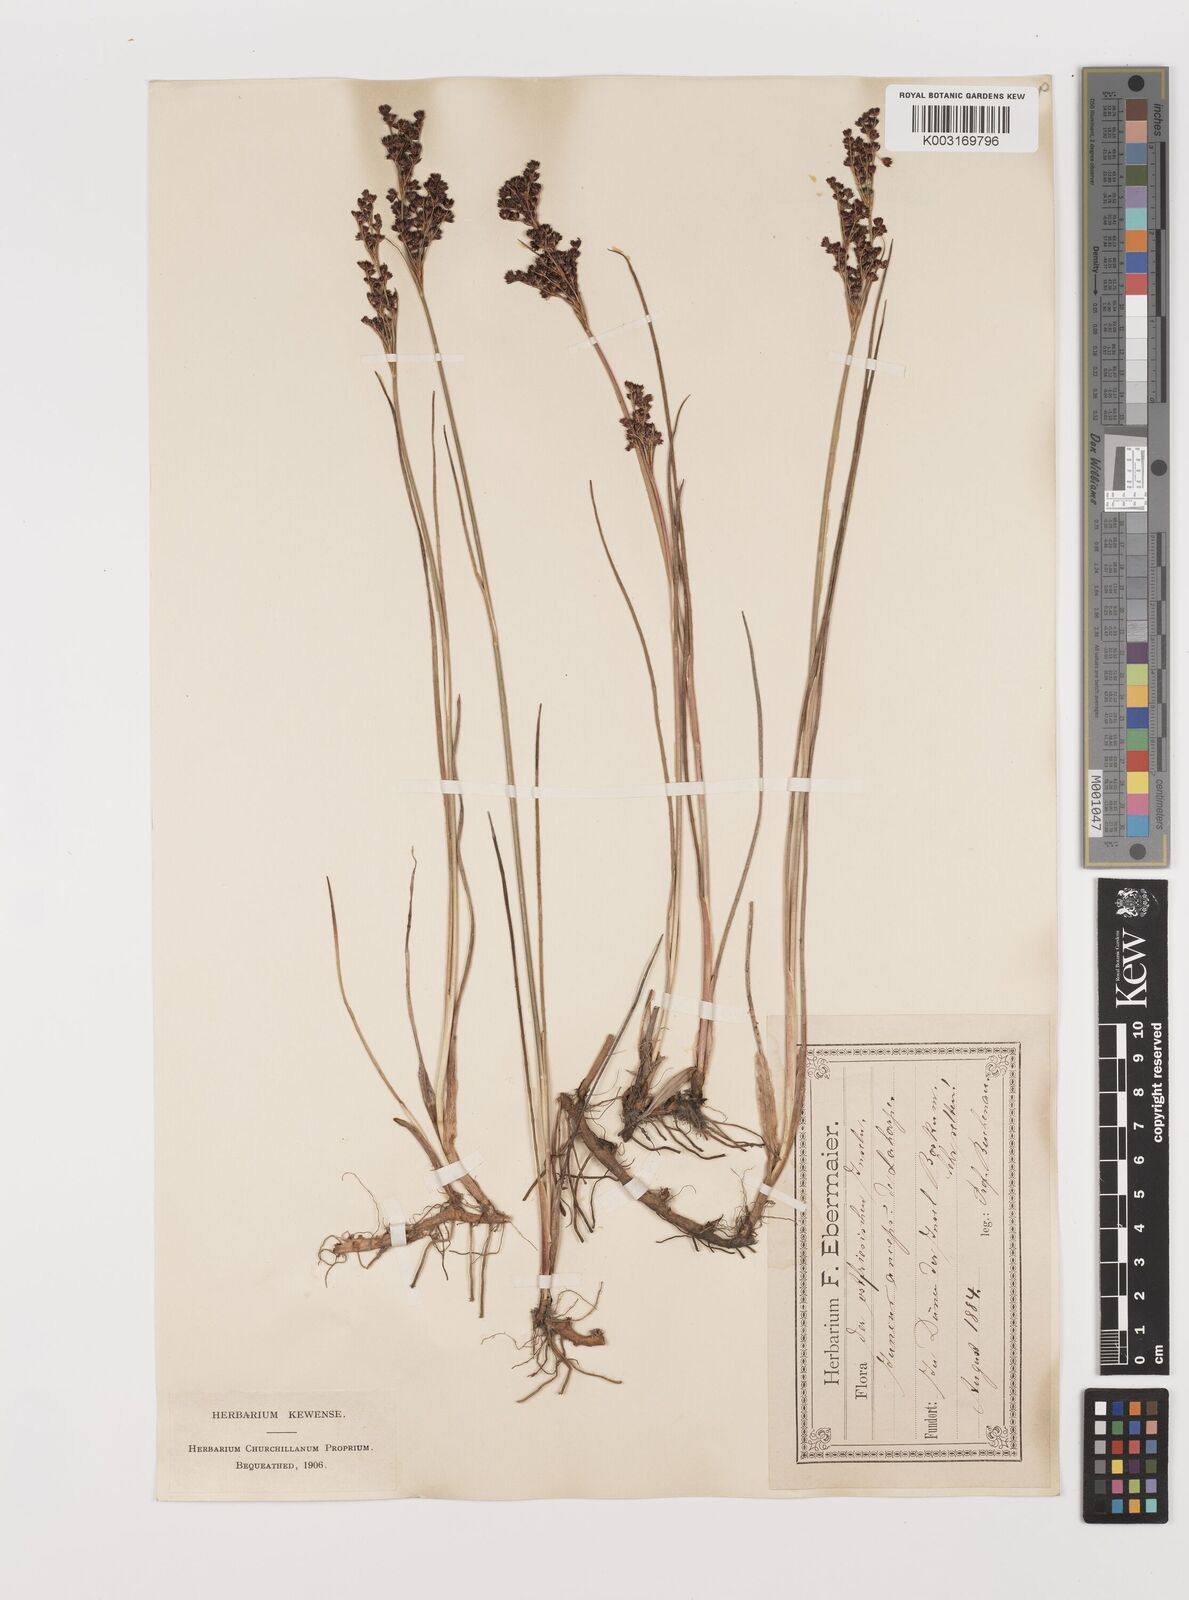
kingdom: Plantae
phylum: Tracheophyta
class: Liliopsida
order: Poales
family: Juncaceae
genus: Juncus
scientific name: Juncus anceps
